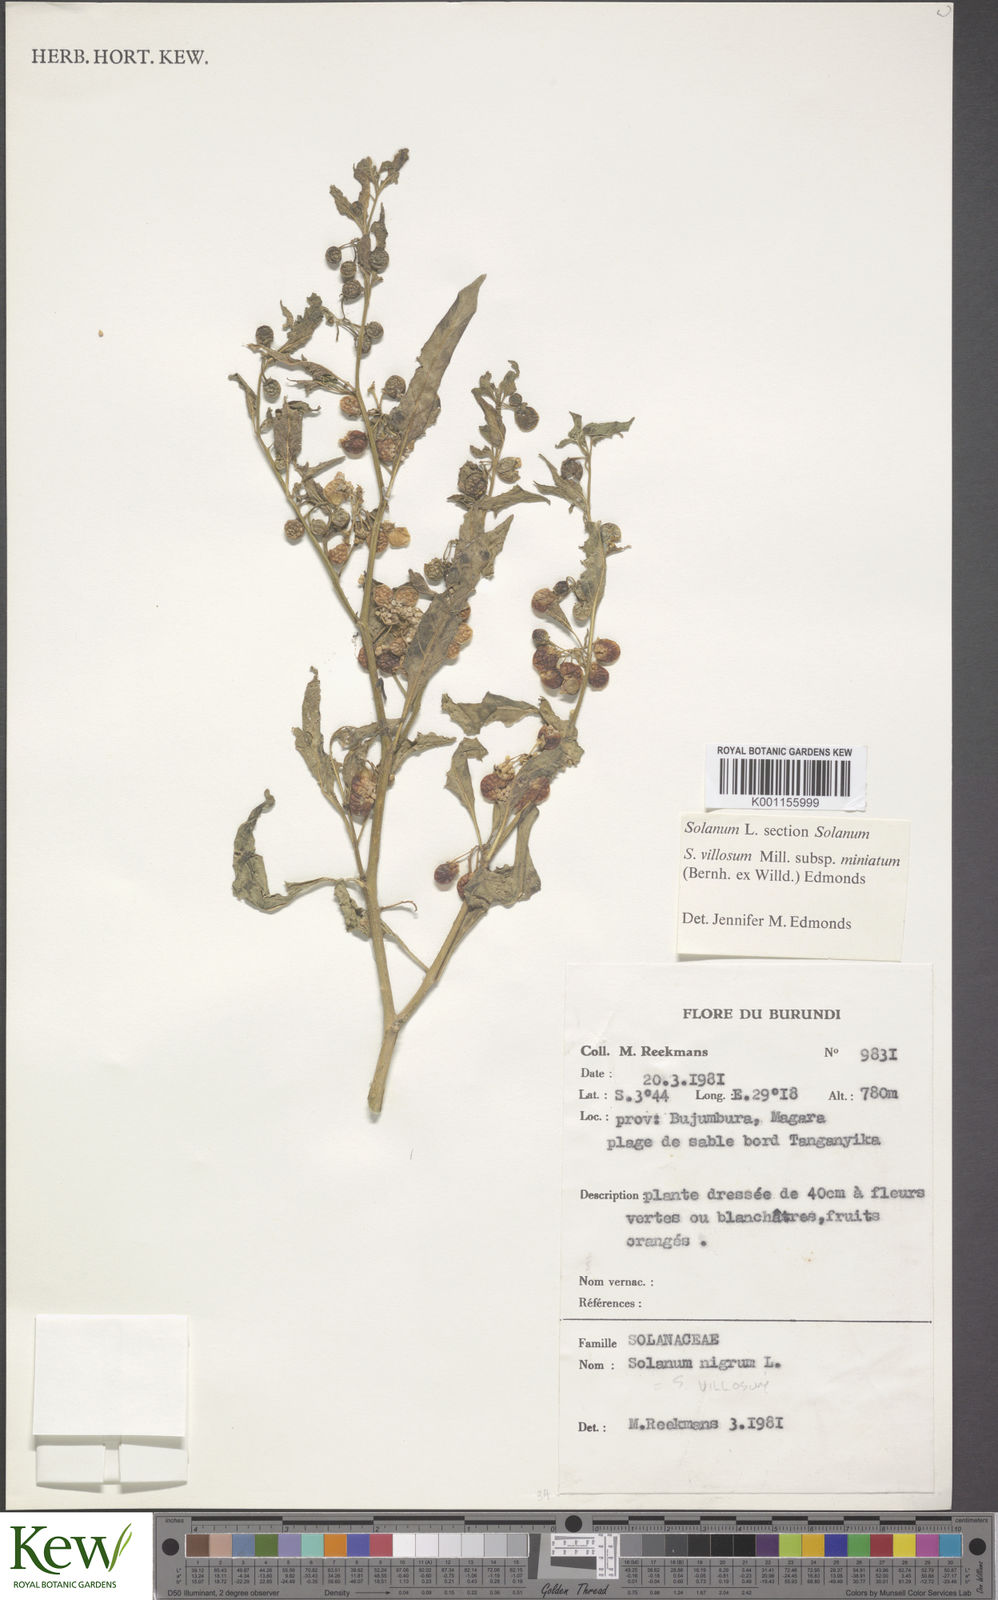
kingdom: Plantae
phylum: Tracheophyta
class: Magnoliopsida
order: Solanales
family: Solanaceae
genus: Solanum
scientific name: Solanum villosum
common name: Red nightshade
